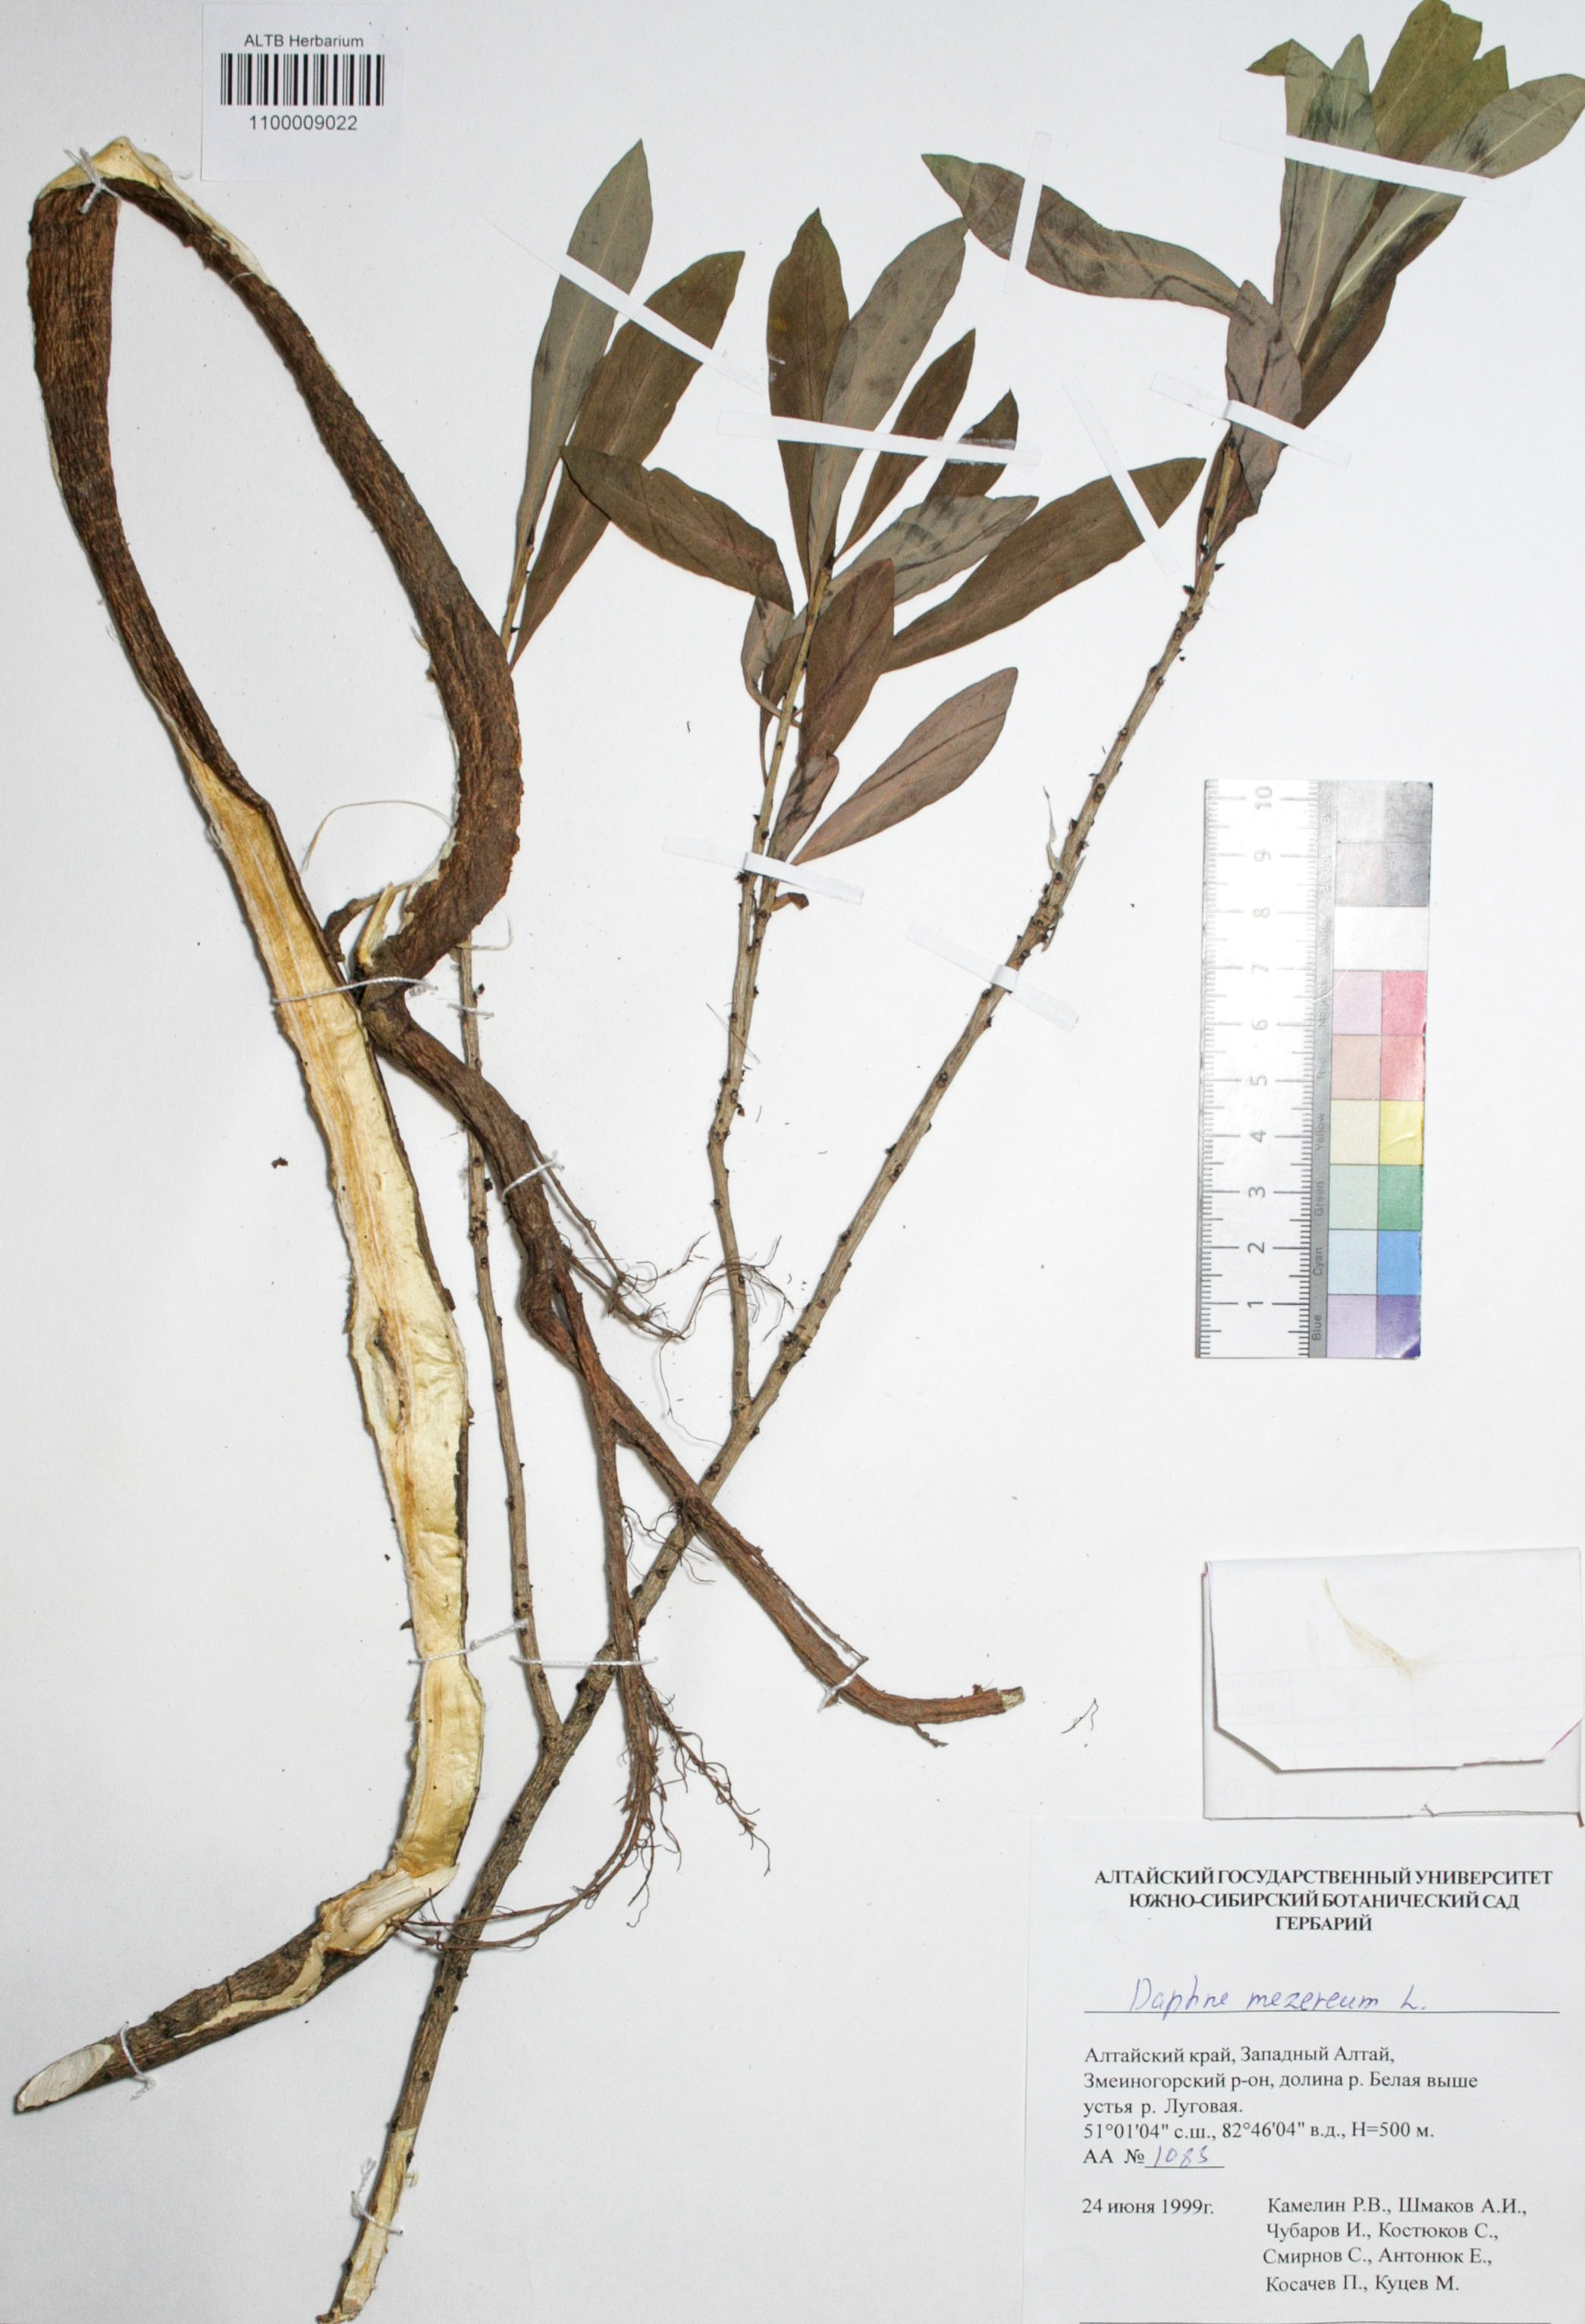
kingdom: Plantae
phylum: Tracheophyta
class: Magnoliopsida
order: Malvales
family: Thymelaeaceae
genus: Daphne
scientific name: Daphne mezereum
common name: Mezereon
